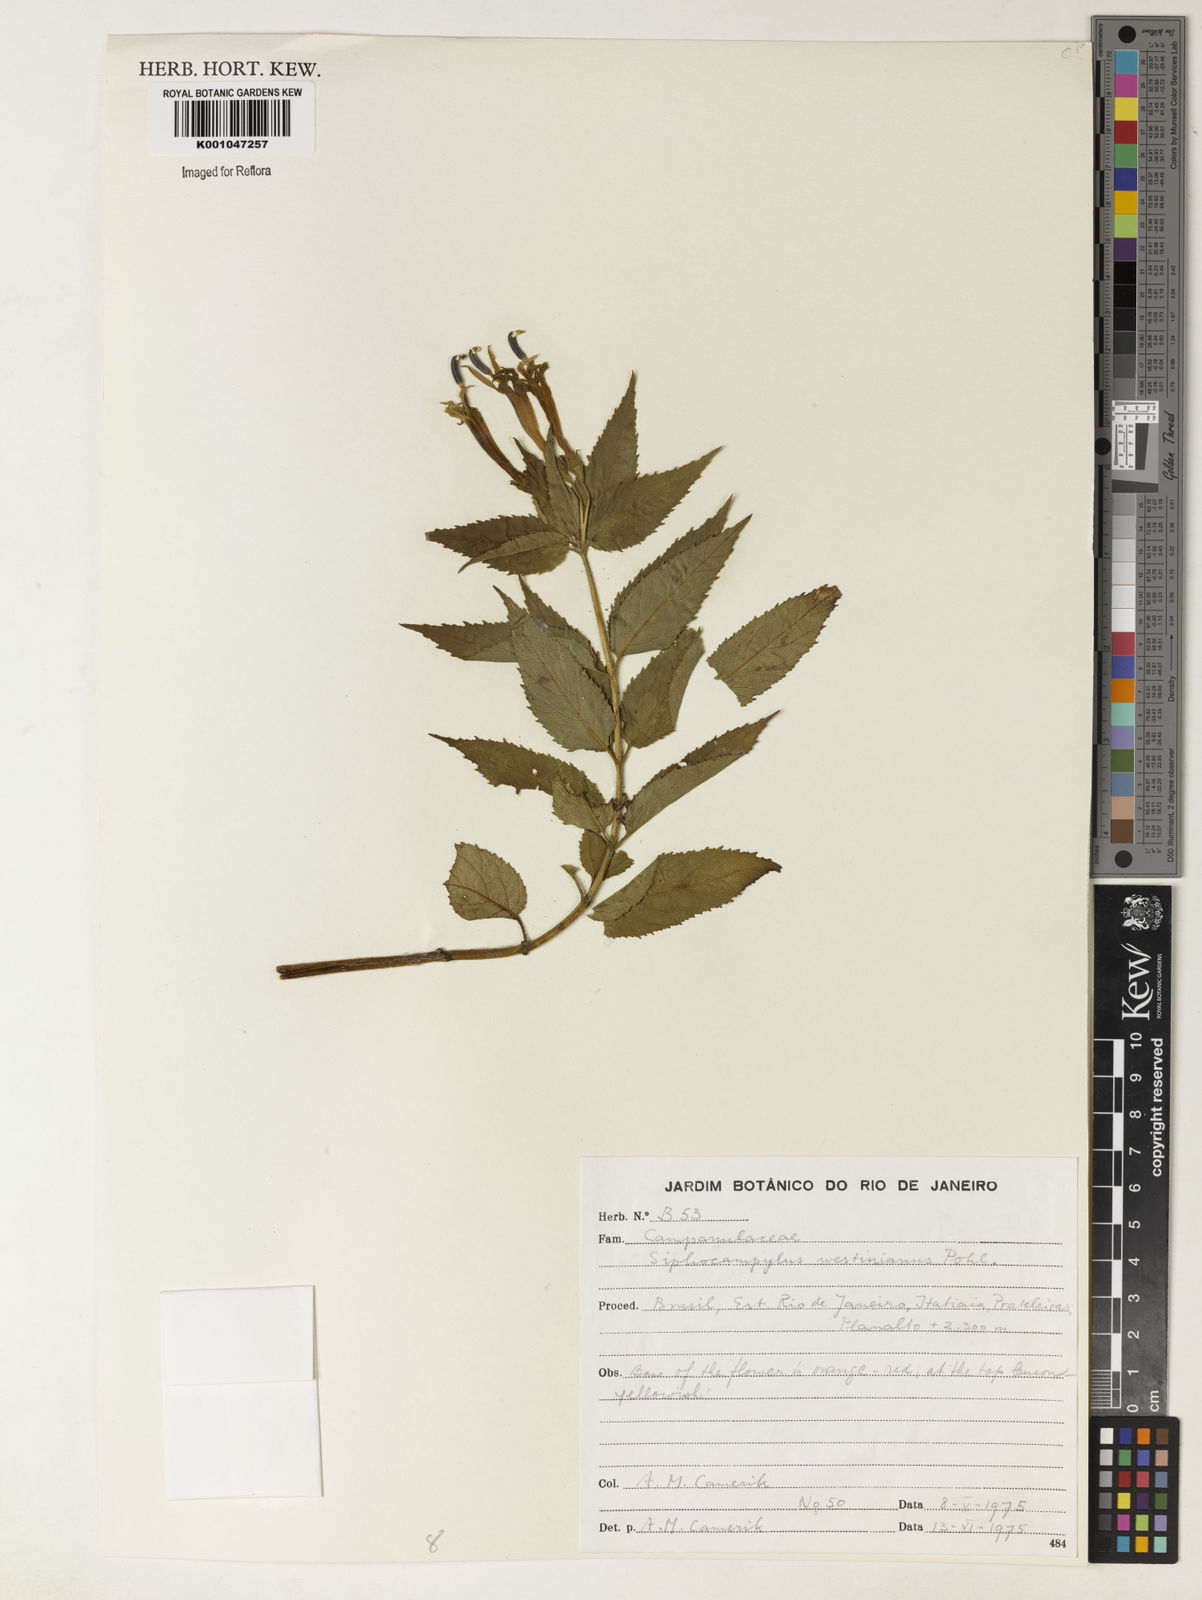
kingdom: Plantae
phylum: Tracheophyta
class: Magnoliopsida
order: Asterales
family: Campanulaceae
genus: Siphocampylus
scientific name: Siphocampylus westinianus
